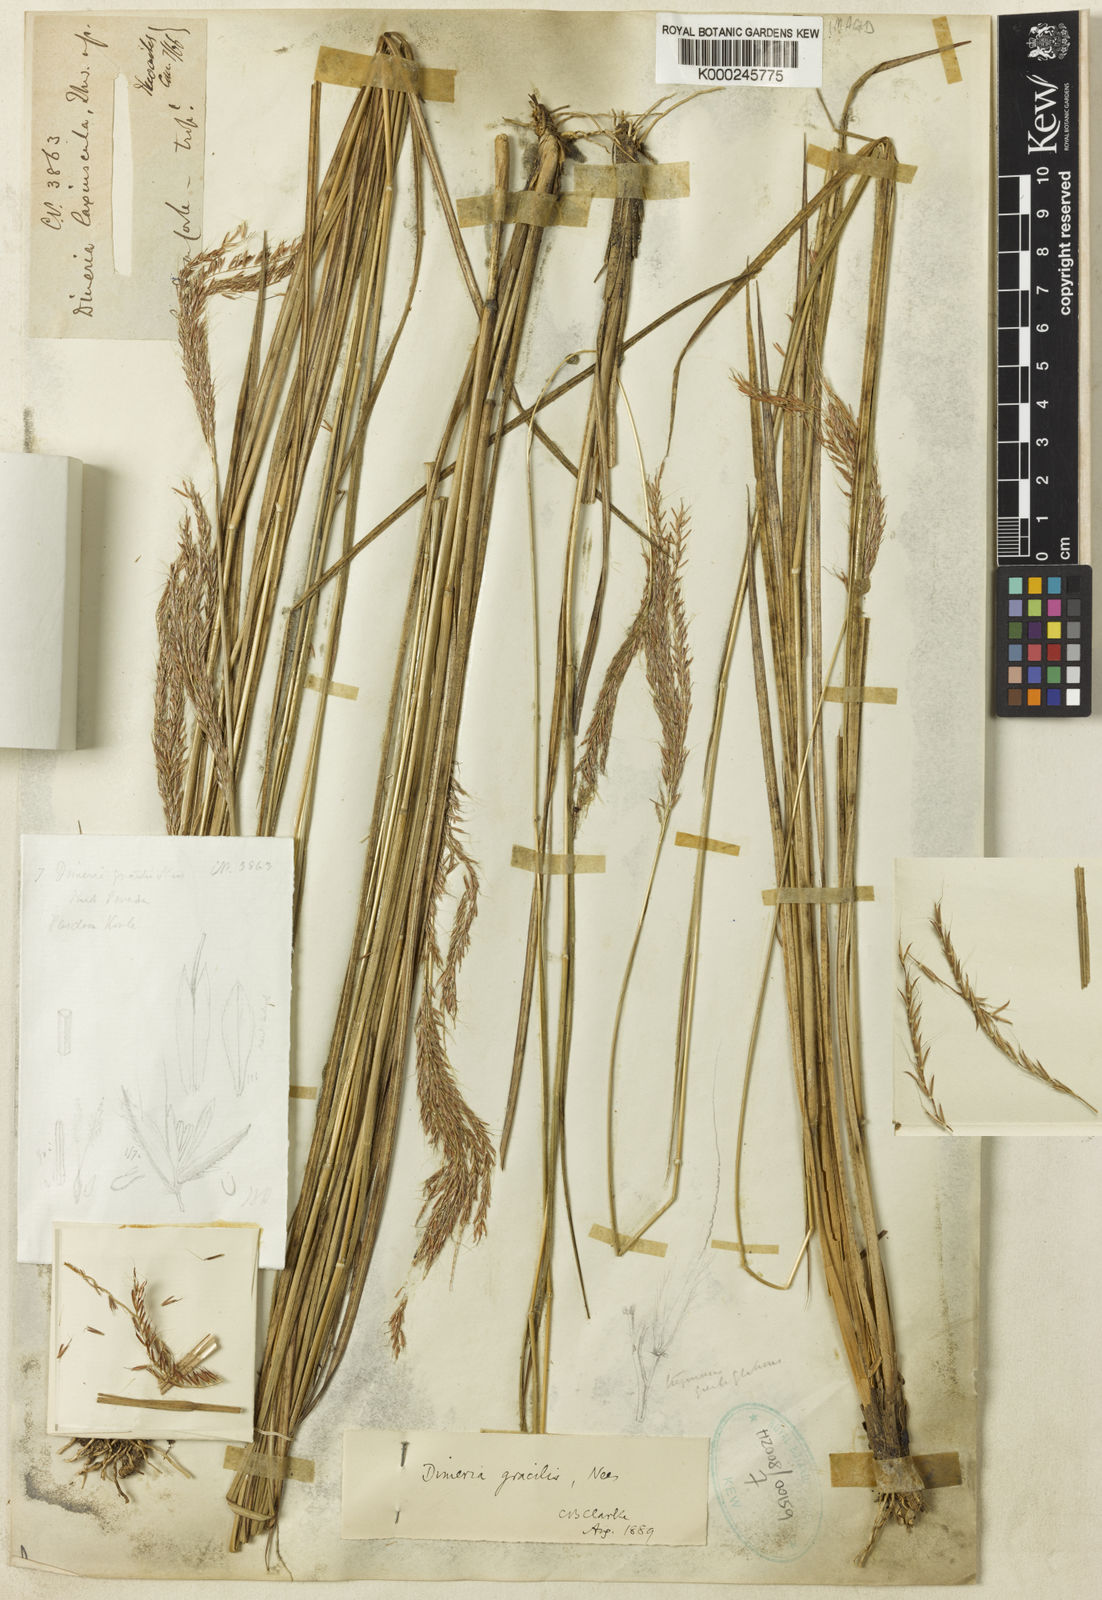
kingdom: Plantae
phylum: Tracheophyta
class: Liliopsida
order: Poales
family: Poaceae
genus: Dimeria
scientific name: Dimeria gracilis
